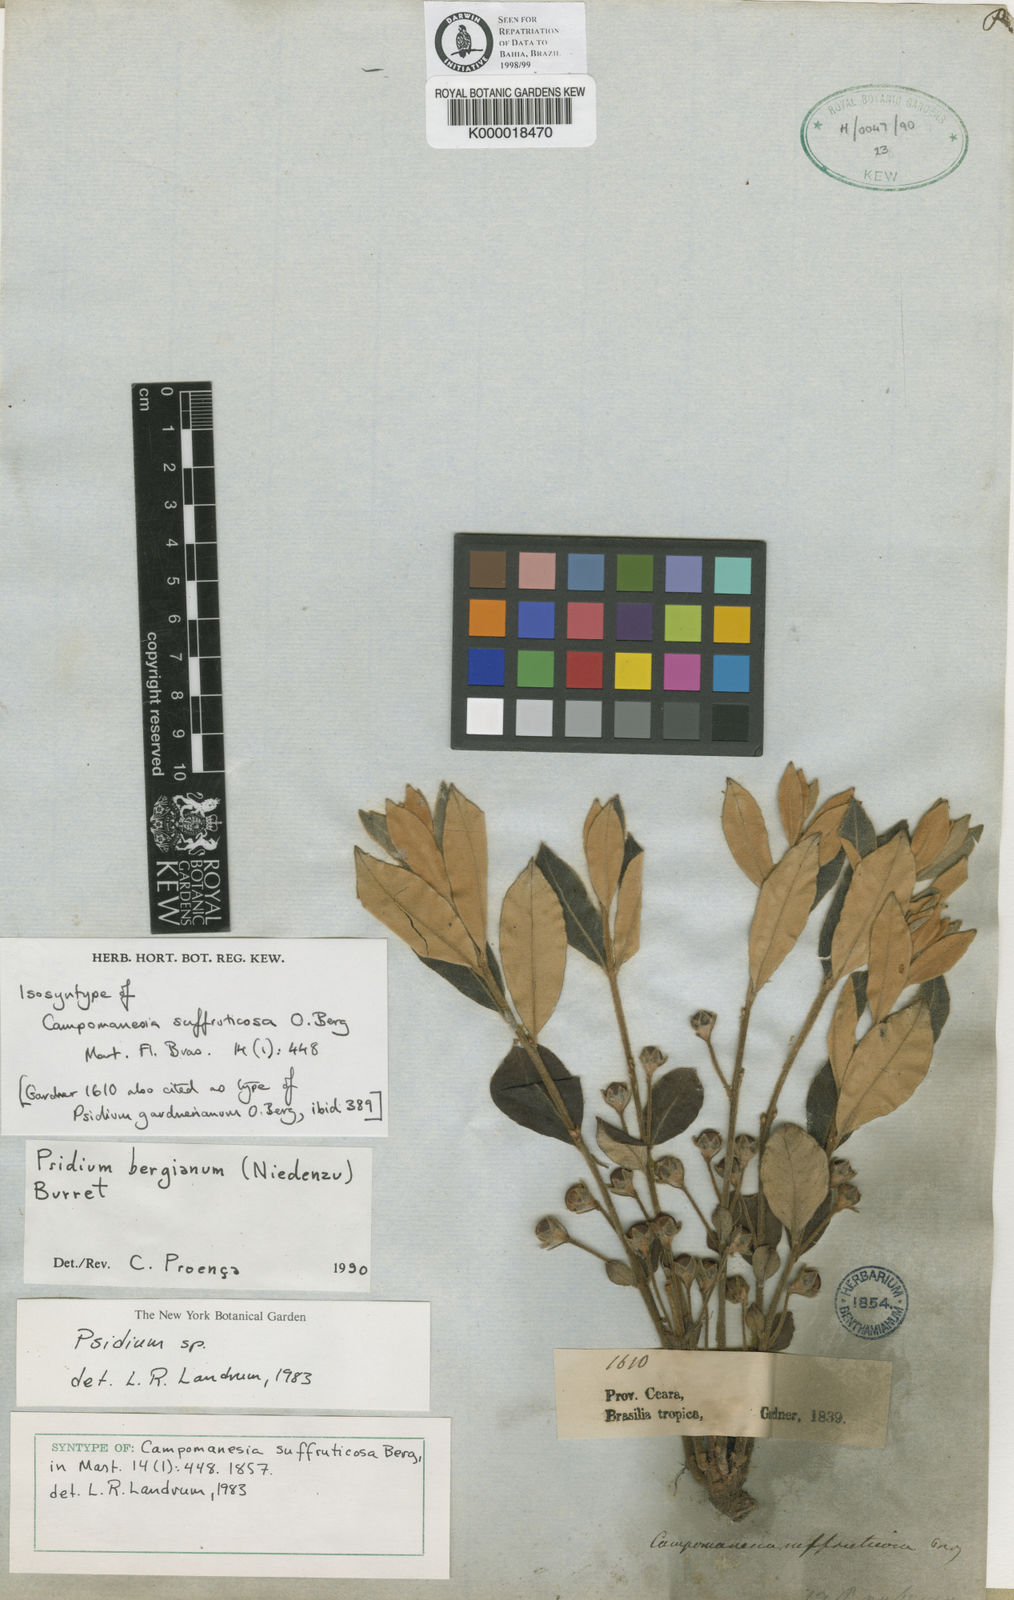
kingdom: Plantae
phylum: Tracheophyta
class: Magnoliopsida
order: Myrtales
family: Myrtaceae
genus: Psidium
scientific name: Psidium bergianum
